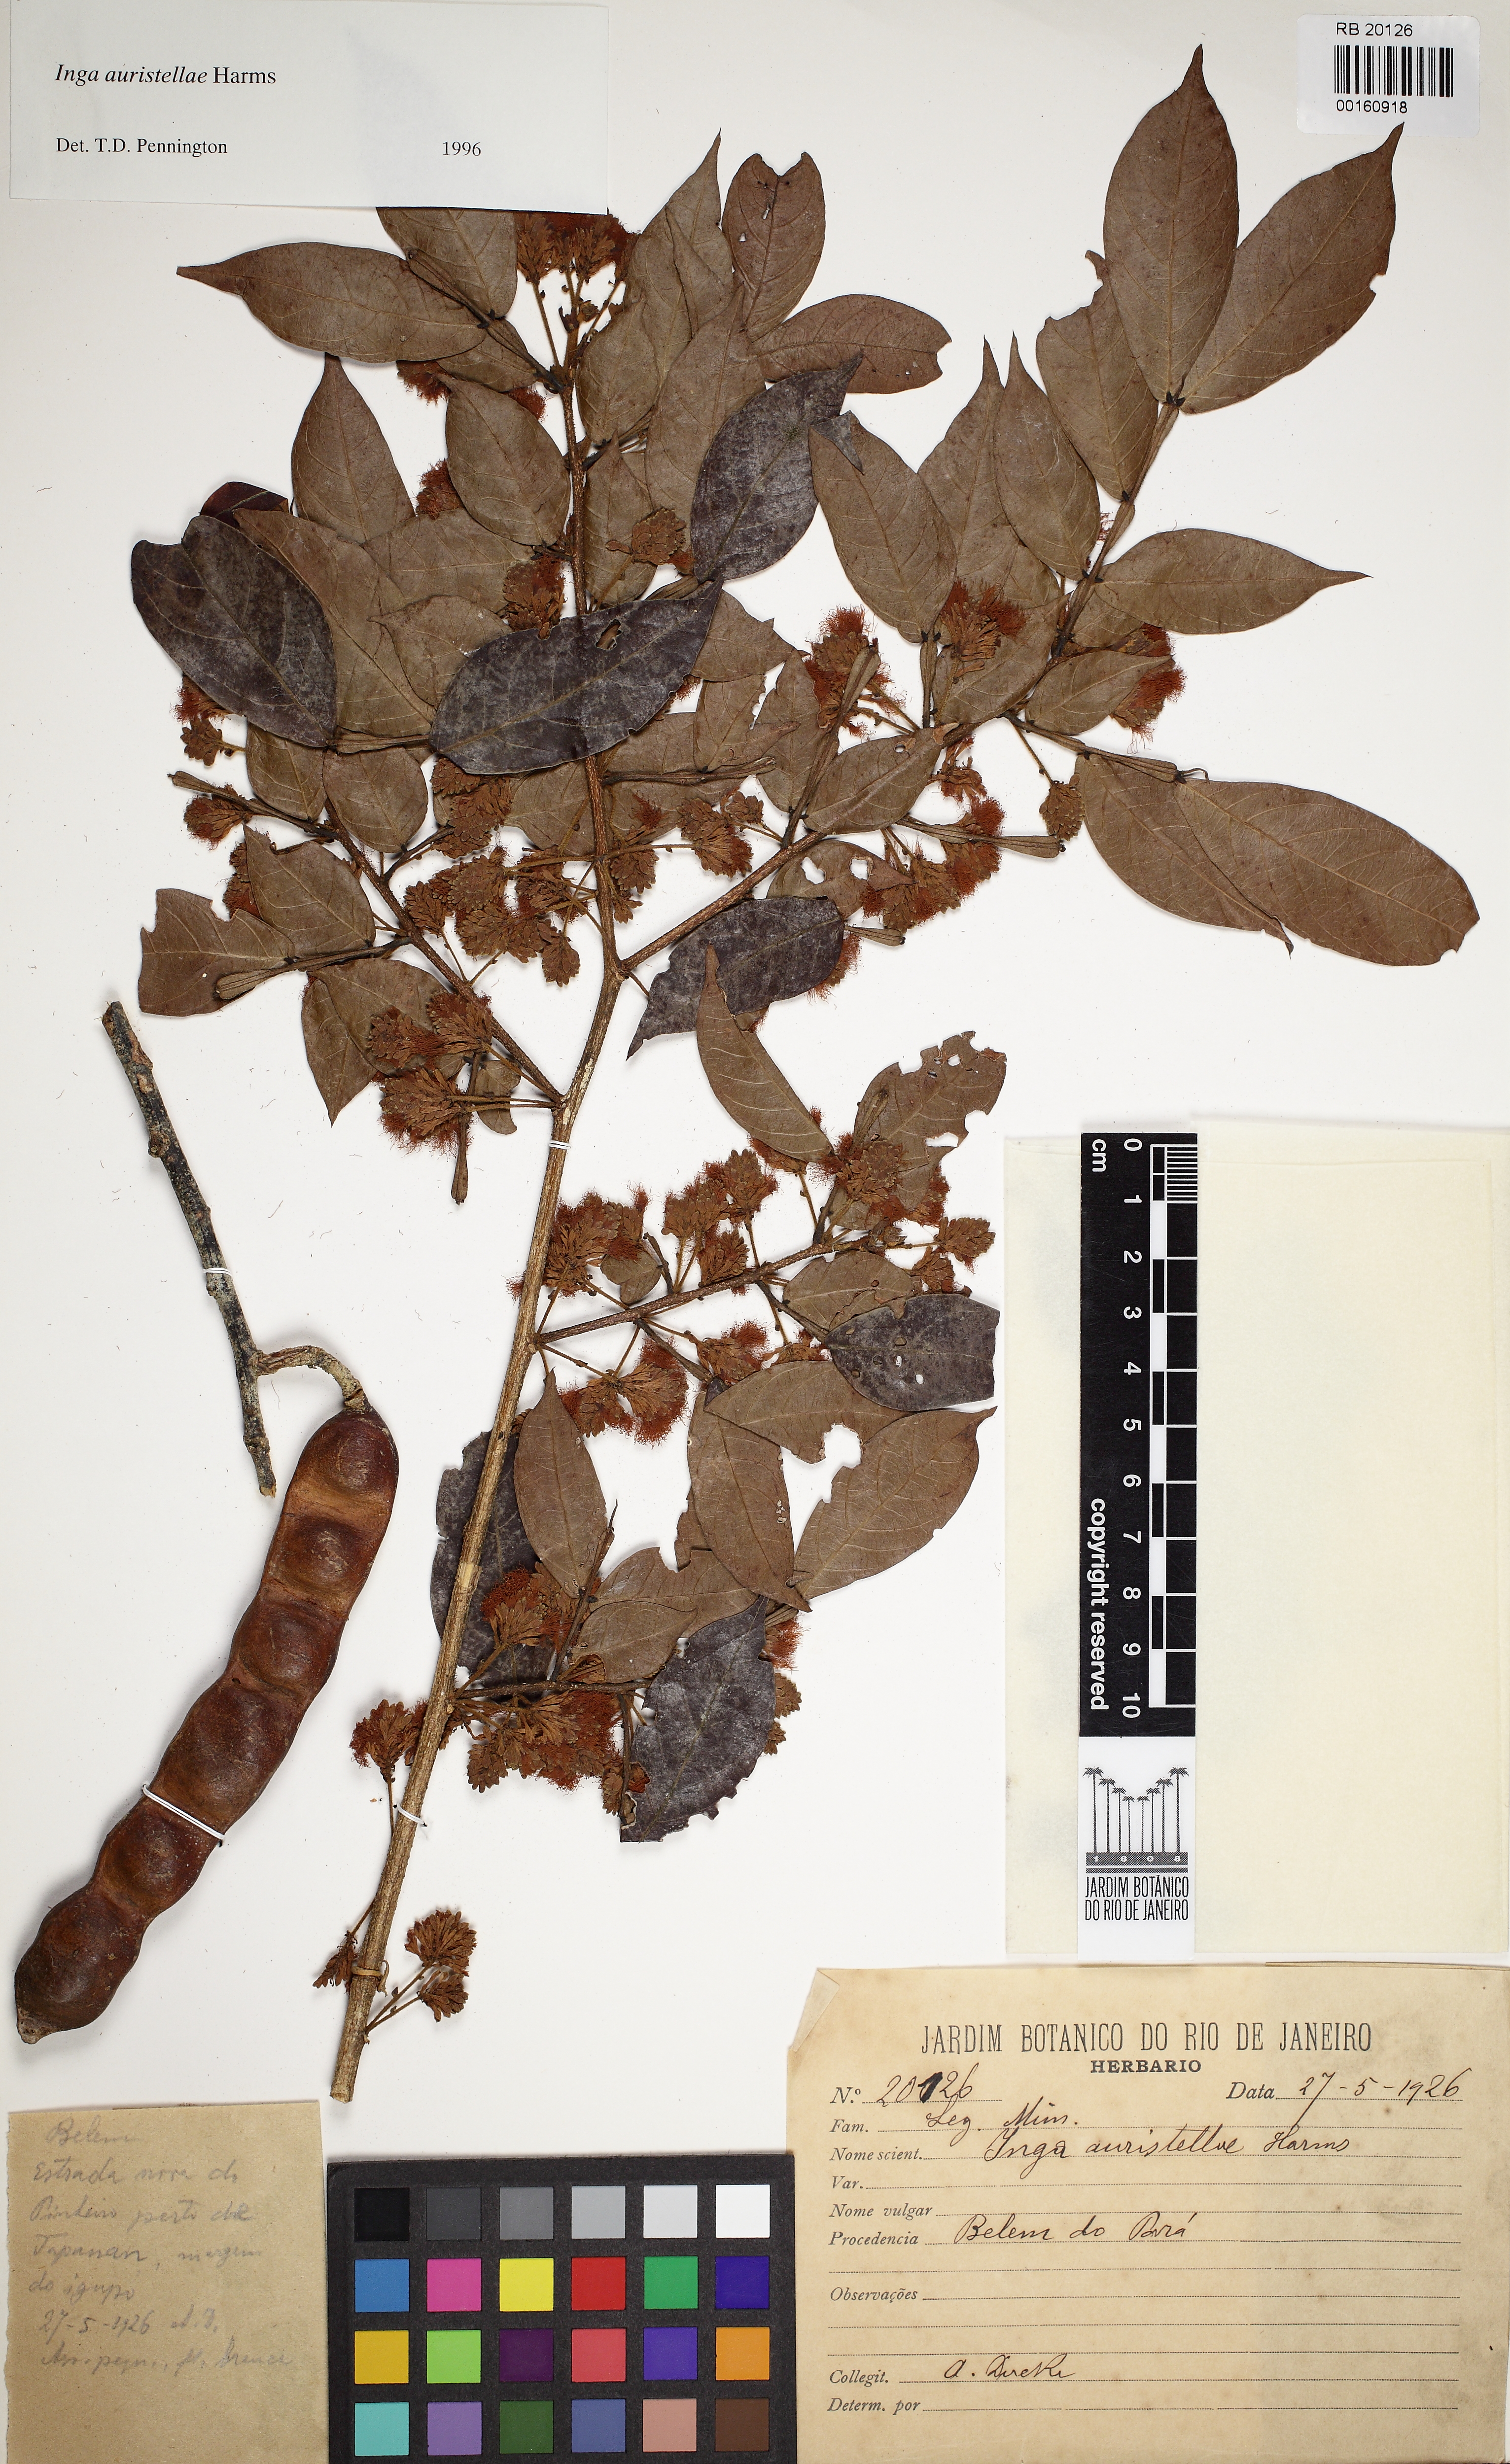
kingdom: Plantae
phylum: Tracheophyta
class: Magnoliopsida
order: Fabales
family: Fabaceae
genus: Inga
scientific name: Inga auristellae
